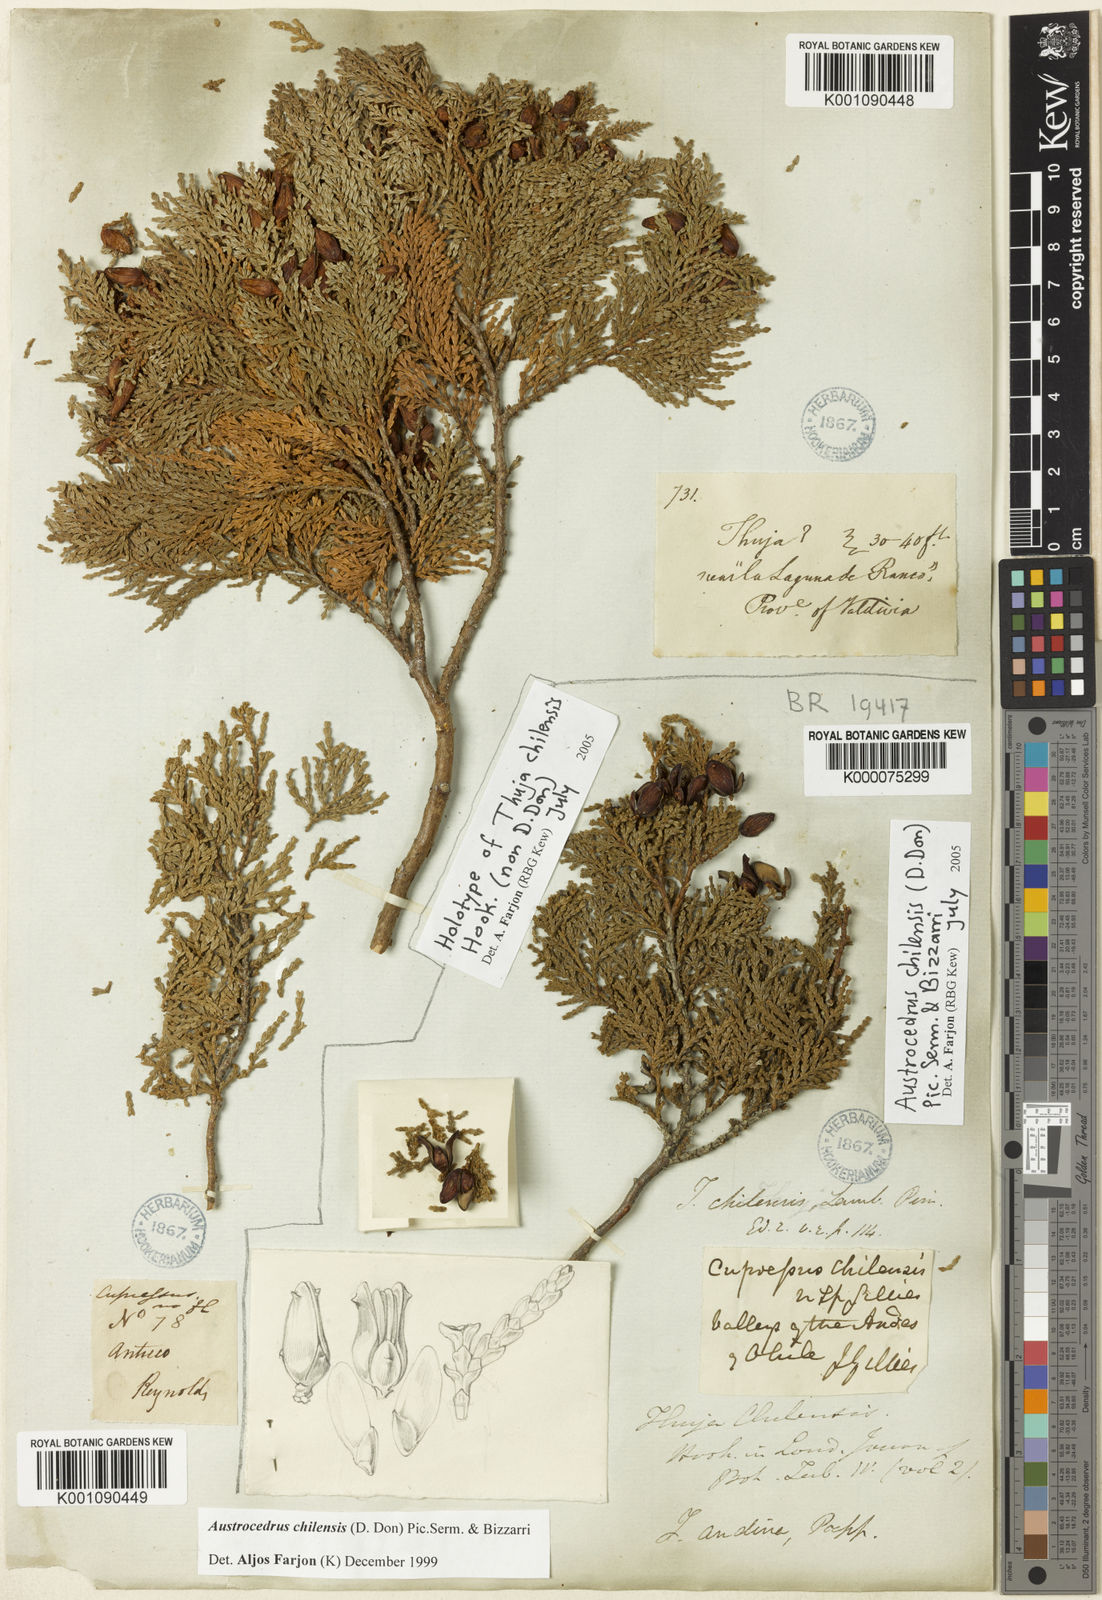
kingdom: Plantae
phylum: Tracheophyta
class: Pinopsida
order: Pinales
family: Cupressaceae
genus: Austrocedrus
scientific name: Austrocedrus chilensis
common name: Chilean incense-cedar
